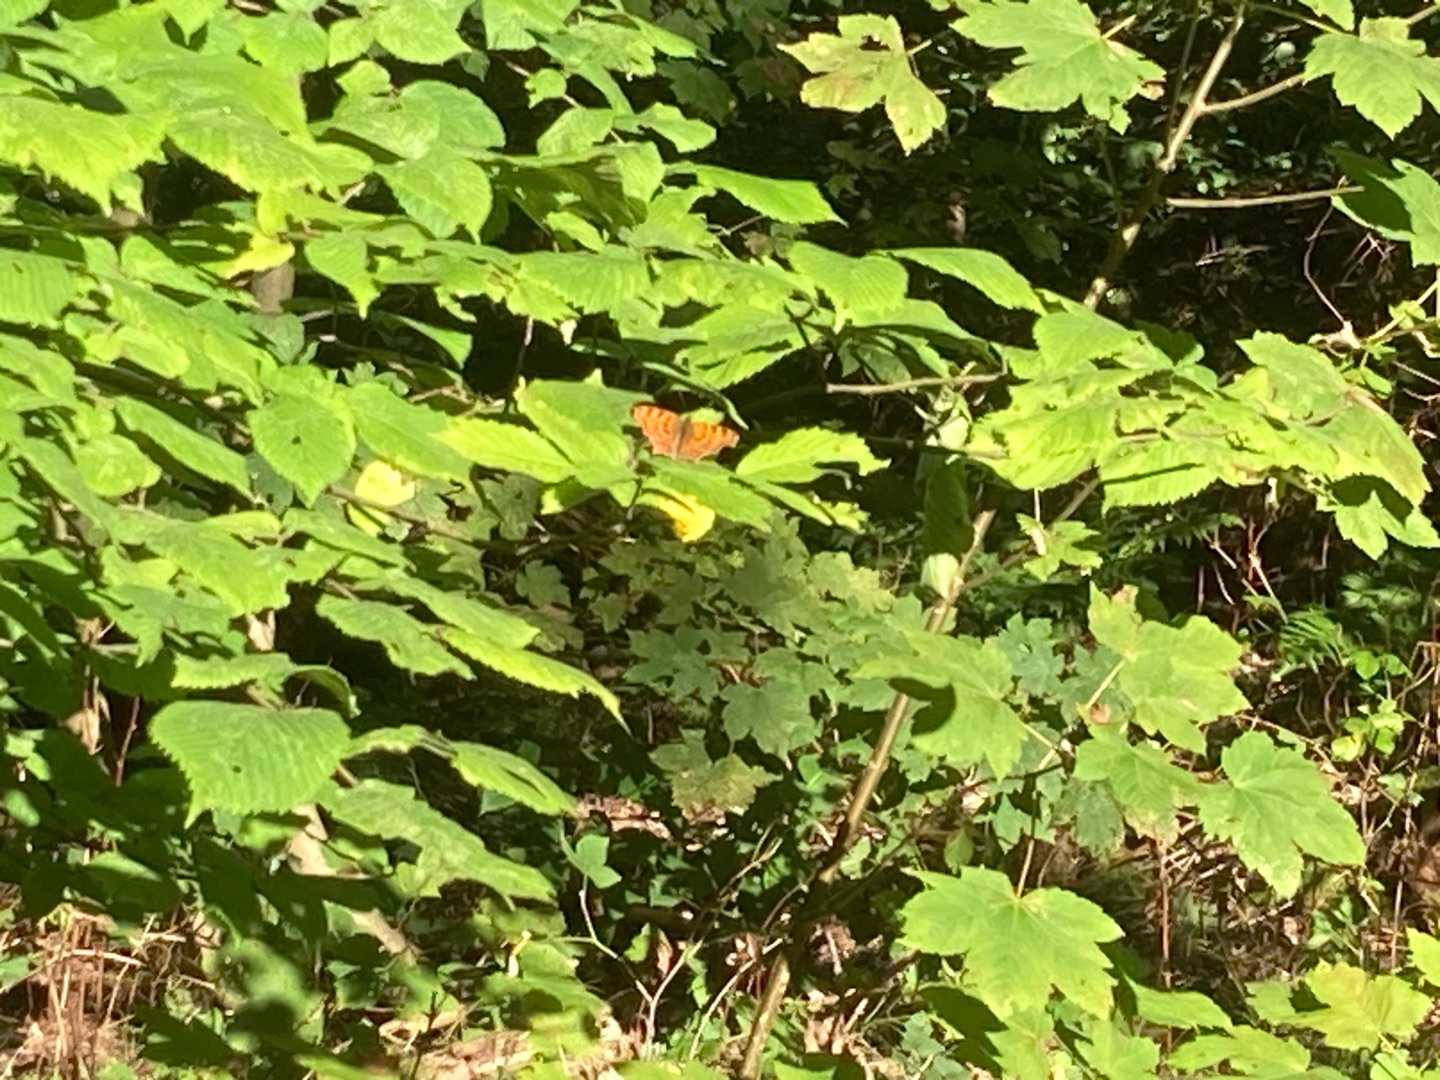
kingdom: Animalia
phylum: Arthropoda
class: Insecta
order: Lepidoptera
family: Nymphalidae
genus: Polygonia
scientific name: Polygonia c-album
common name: Det hvide C
